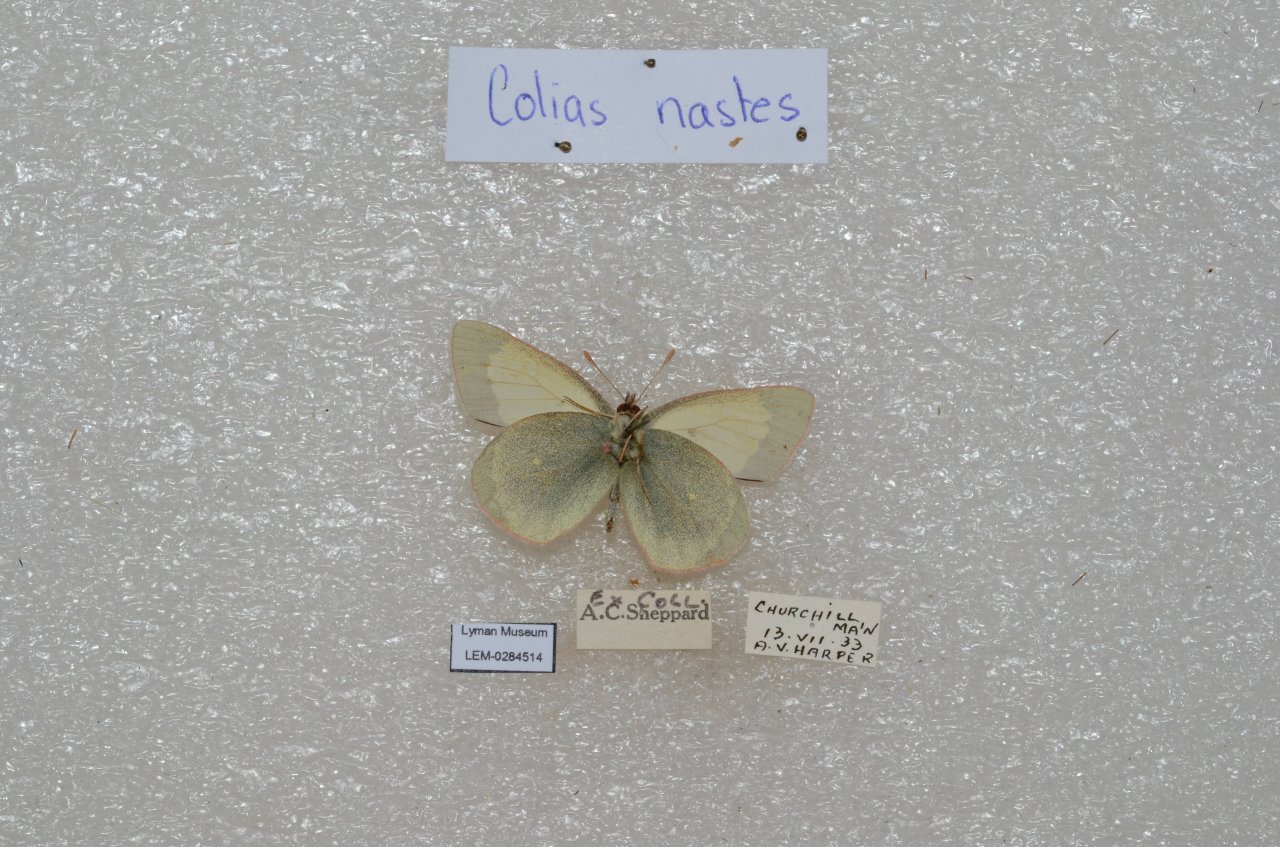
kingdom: Animalia
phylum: Arthropoda
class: Insecta
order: Lepidoptera
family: Pieridae
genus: Colias
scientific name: Colias palaeno
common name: Chippewa Sulphur
